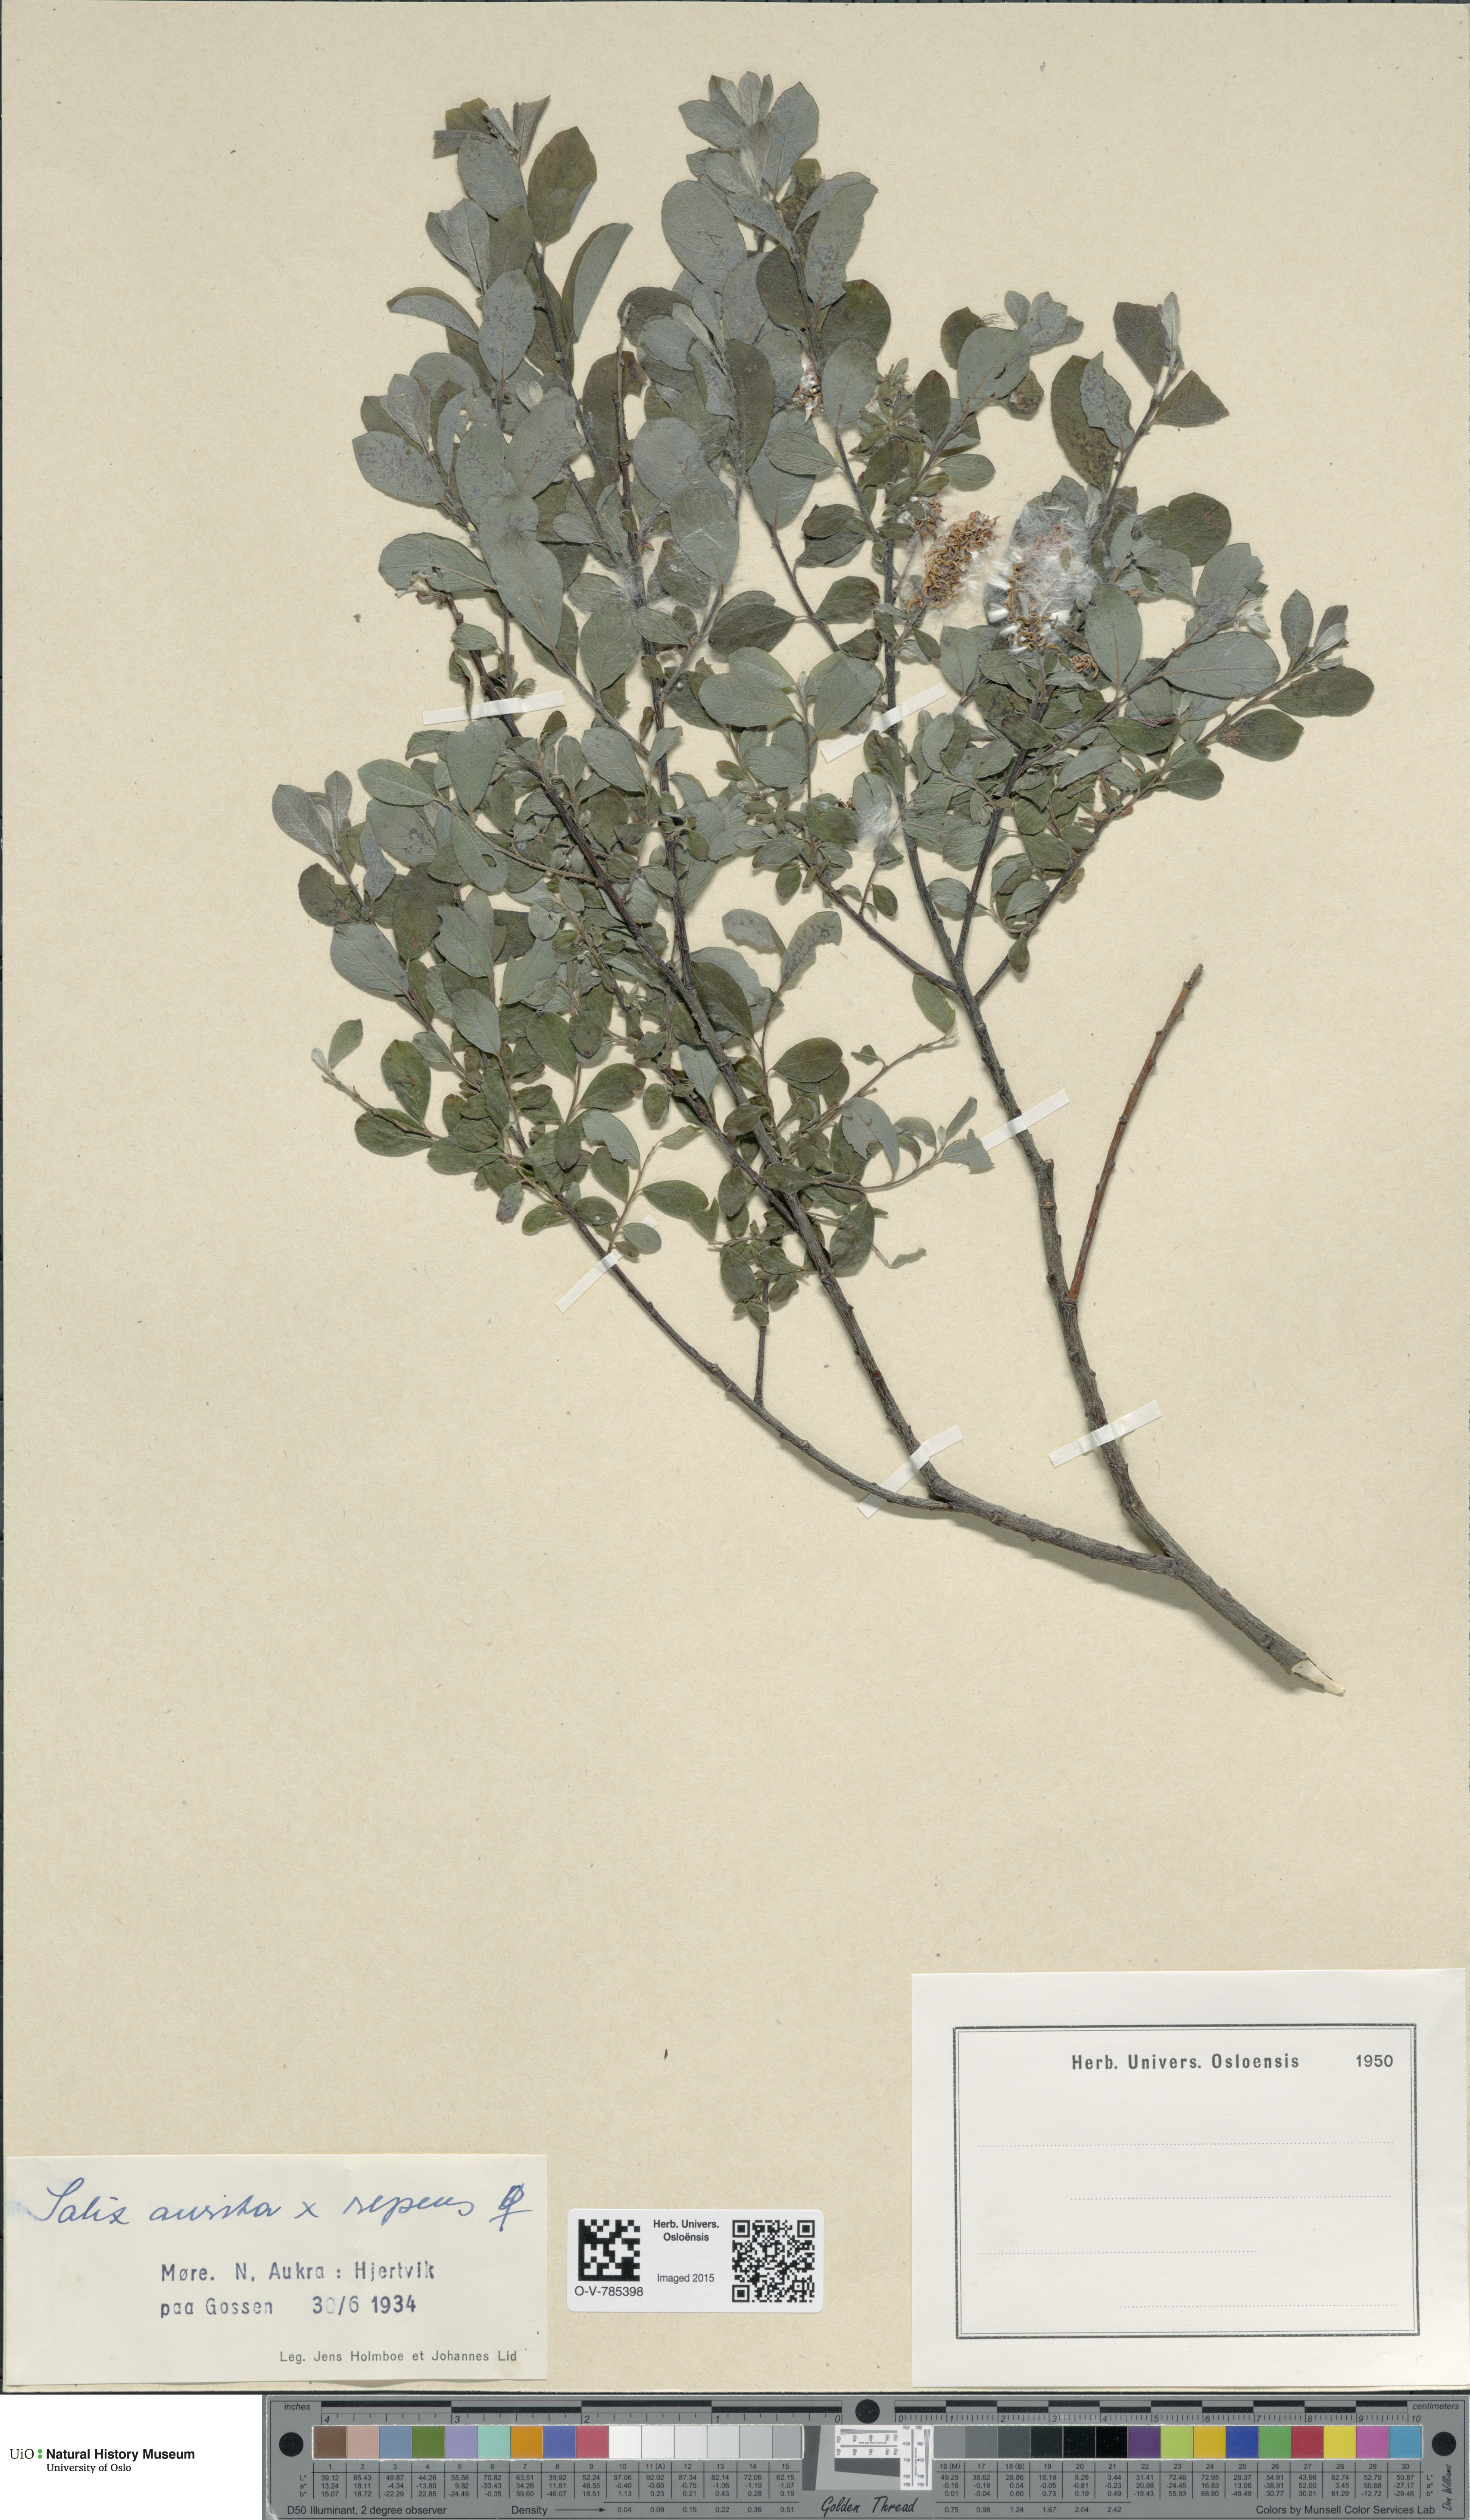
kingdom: Plantae
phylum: Tracheophyta
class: Magnoliopsida
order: Malpighiales
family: Salicaceae
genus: Salix
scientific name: Salix
